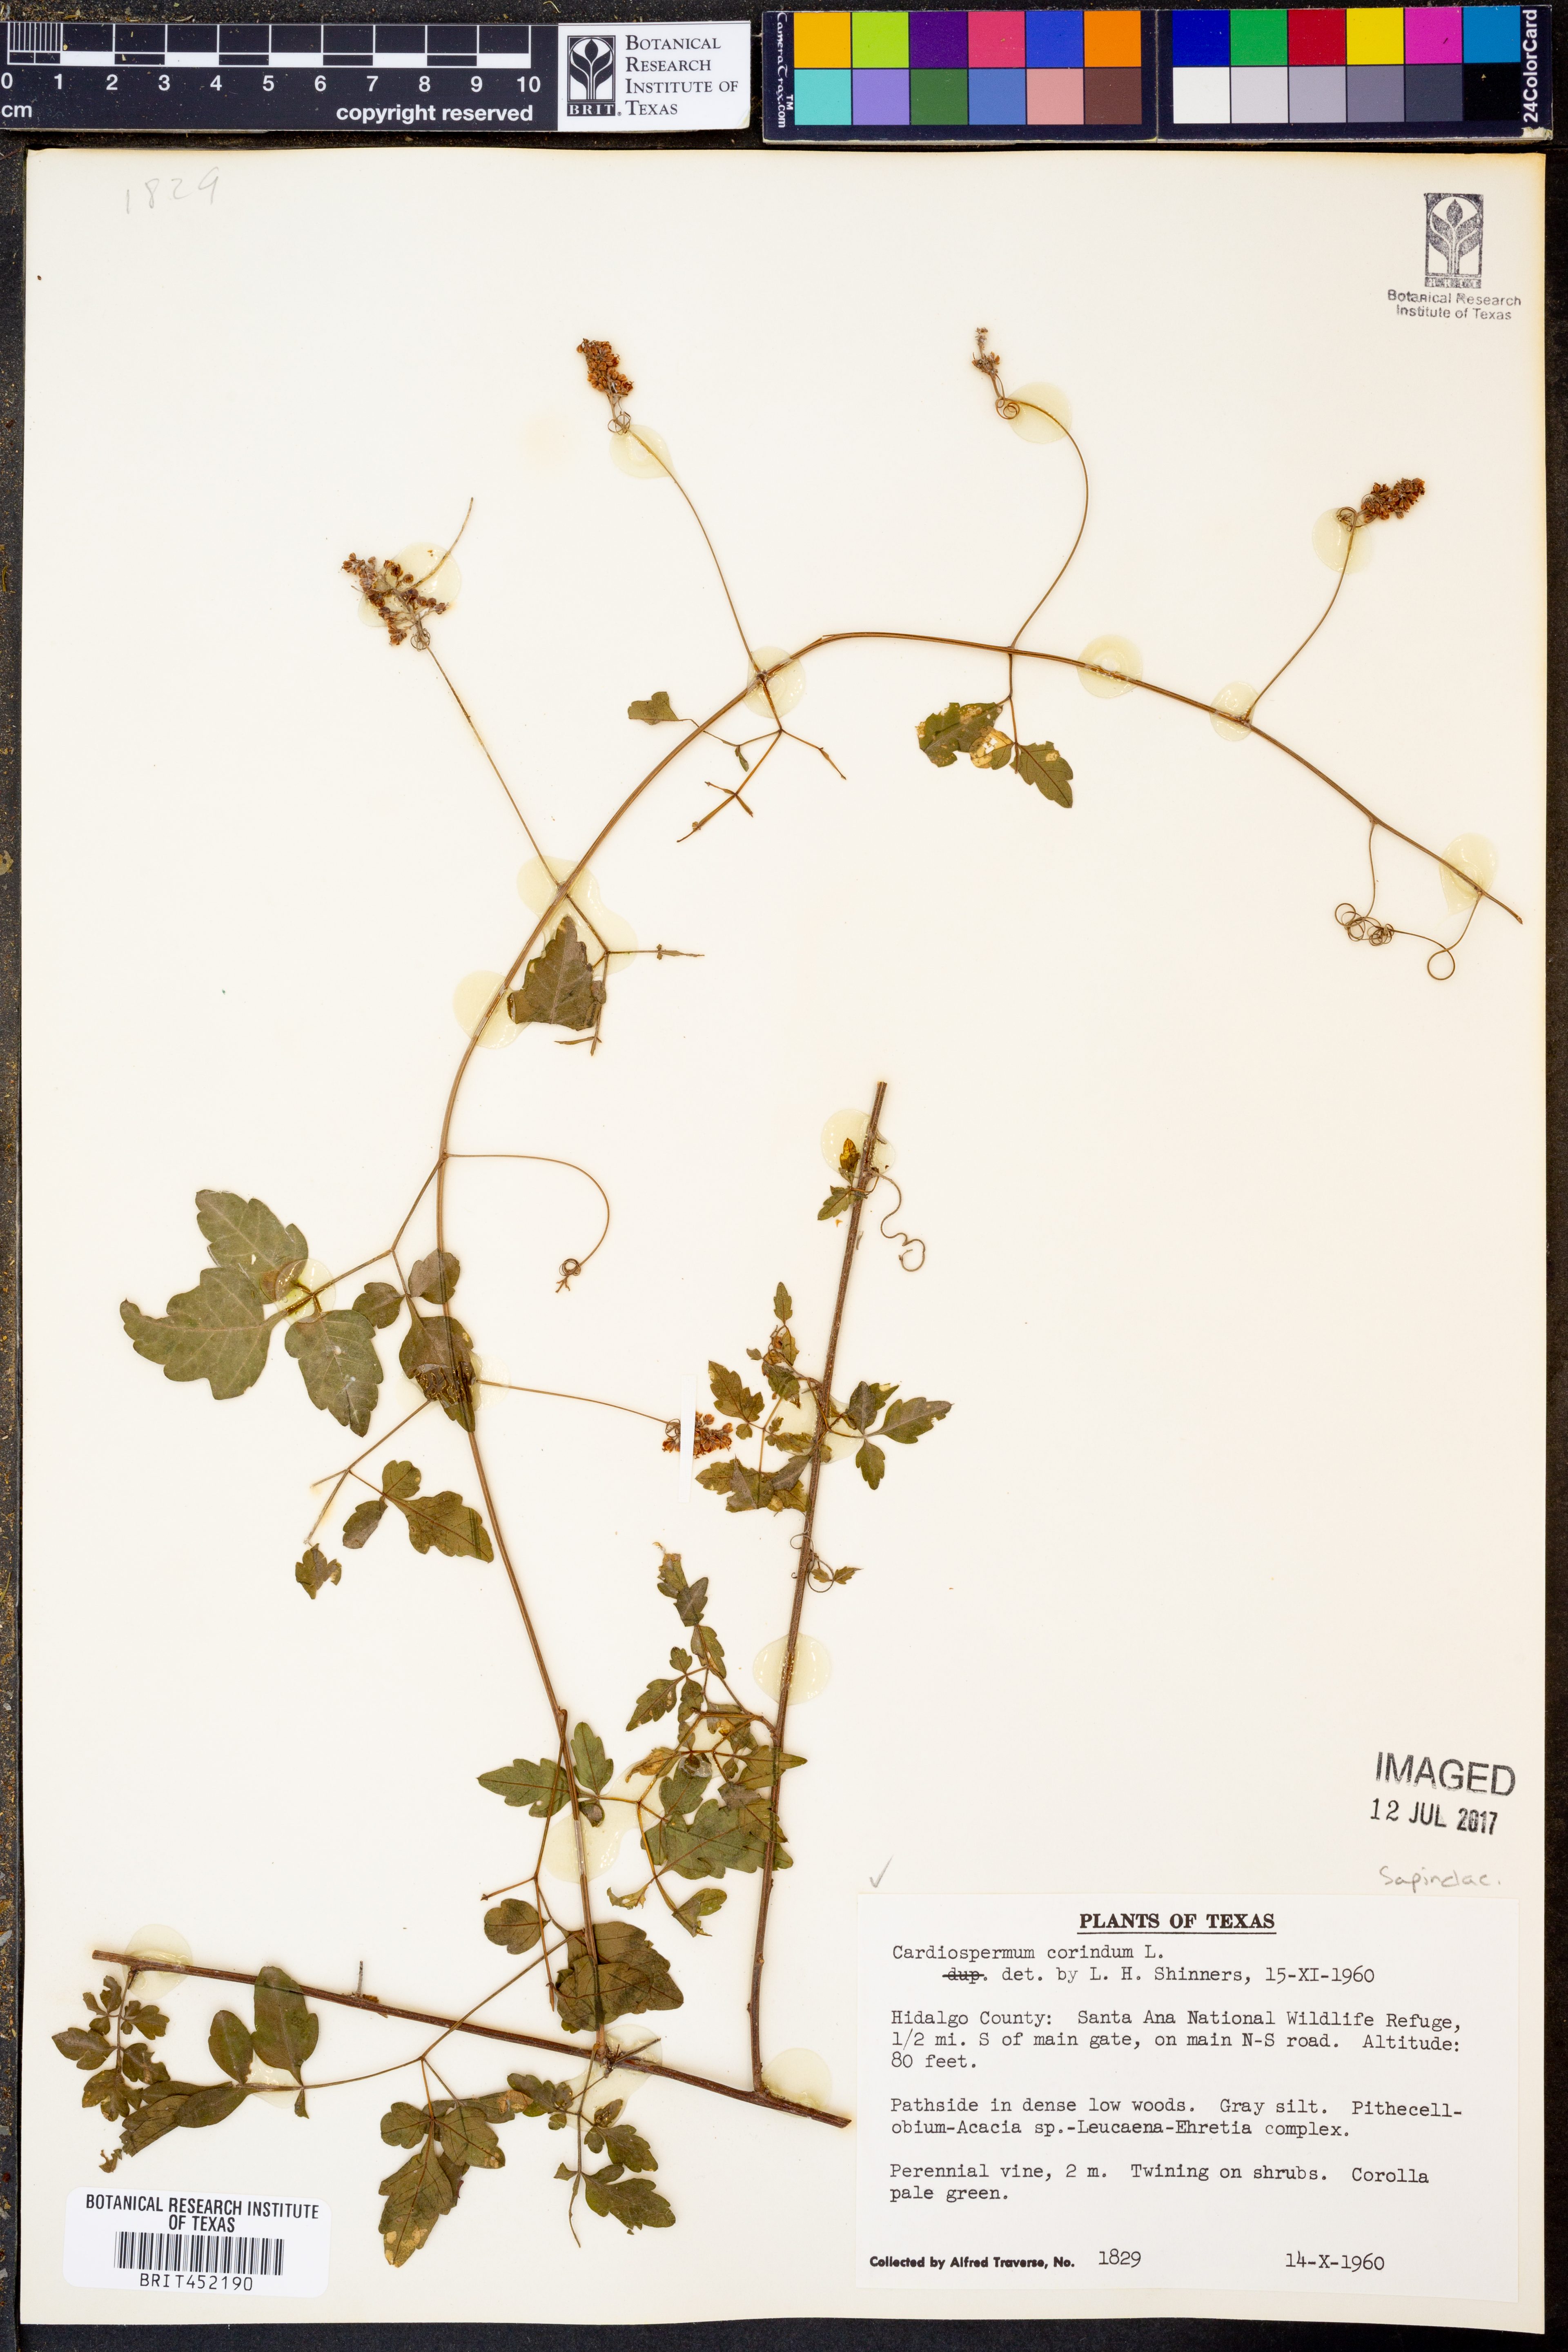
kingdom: Plantae
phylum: Tracheophyta
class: Magnoliopsida
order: Sapindales
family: Sapindaceae
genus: Cardiospermum
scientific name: Cardiospermum corindum
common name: Faux persil
